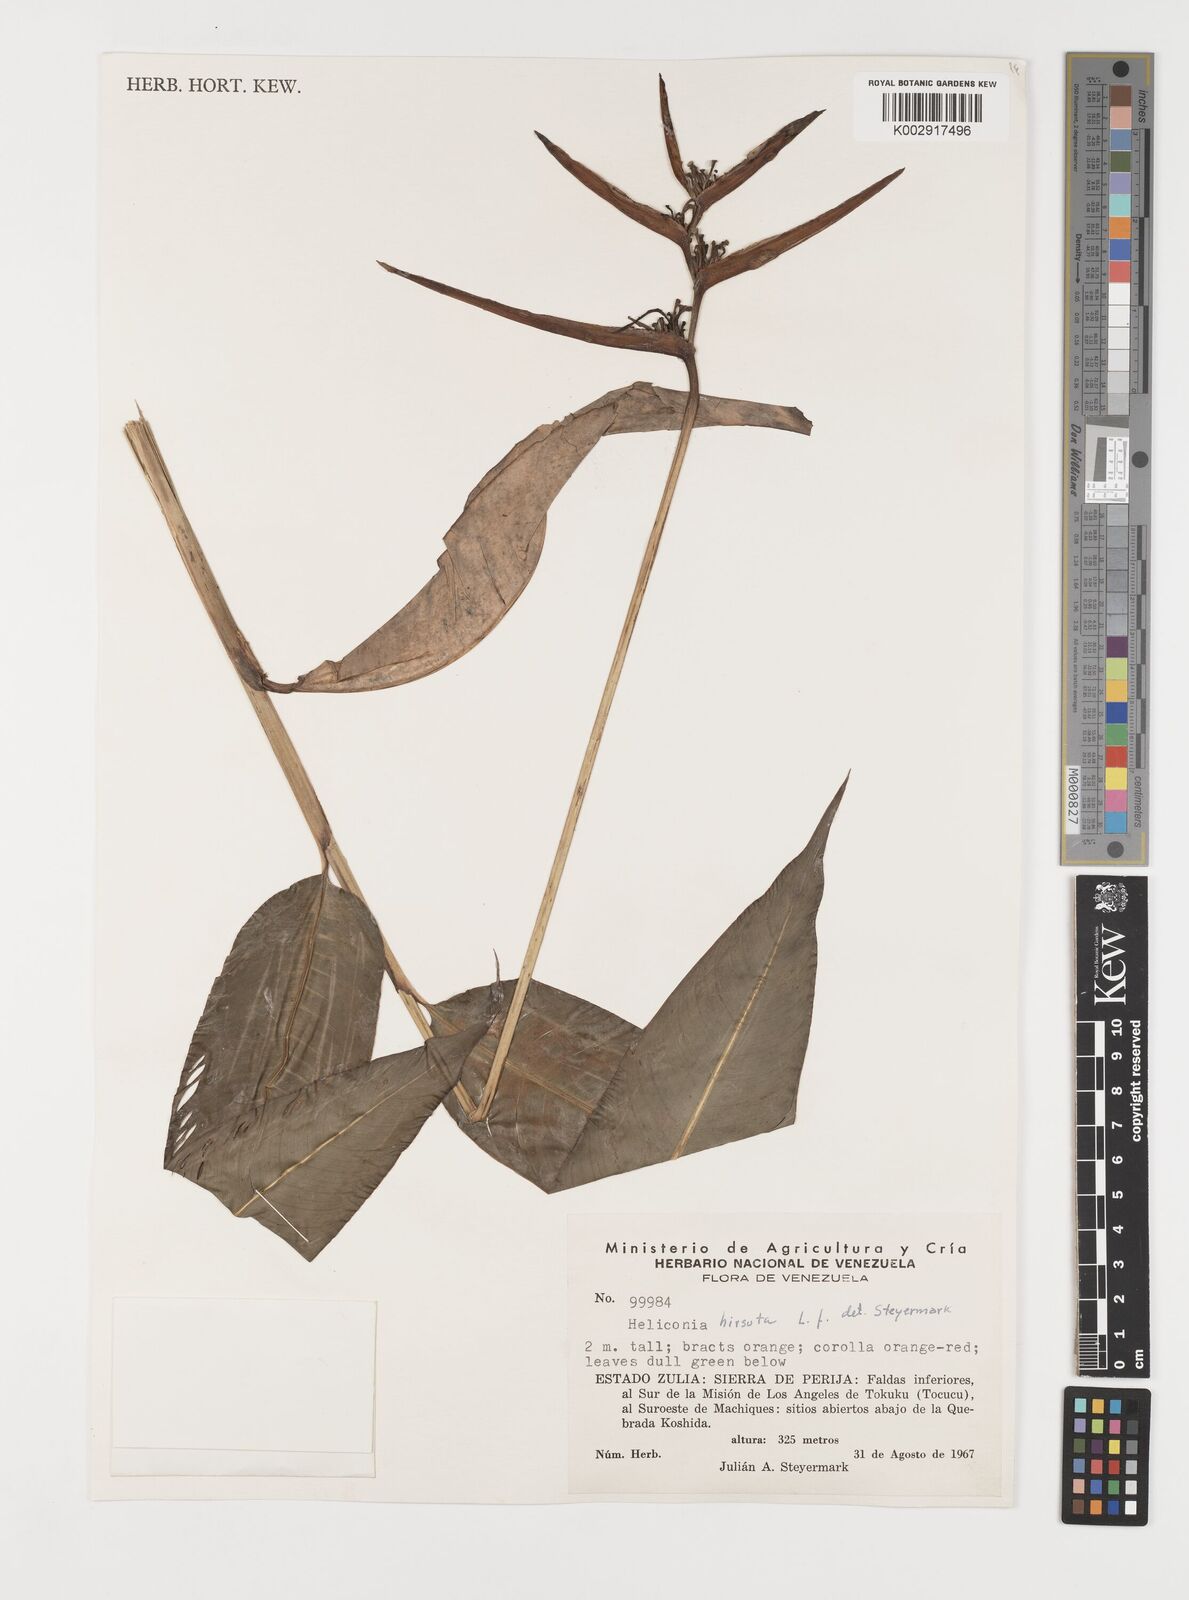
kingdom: Plantae
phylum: Tracheophyta
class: Liliopsida
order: Zingiberales
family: Heliconiaceae
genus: Heliconia
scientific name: Heliconia hirsuta
